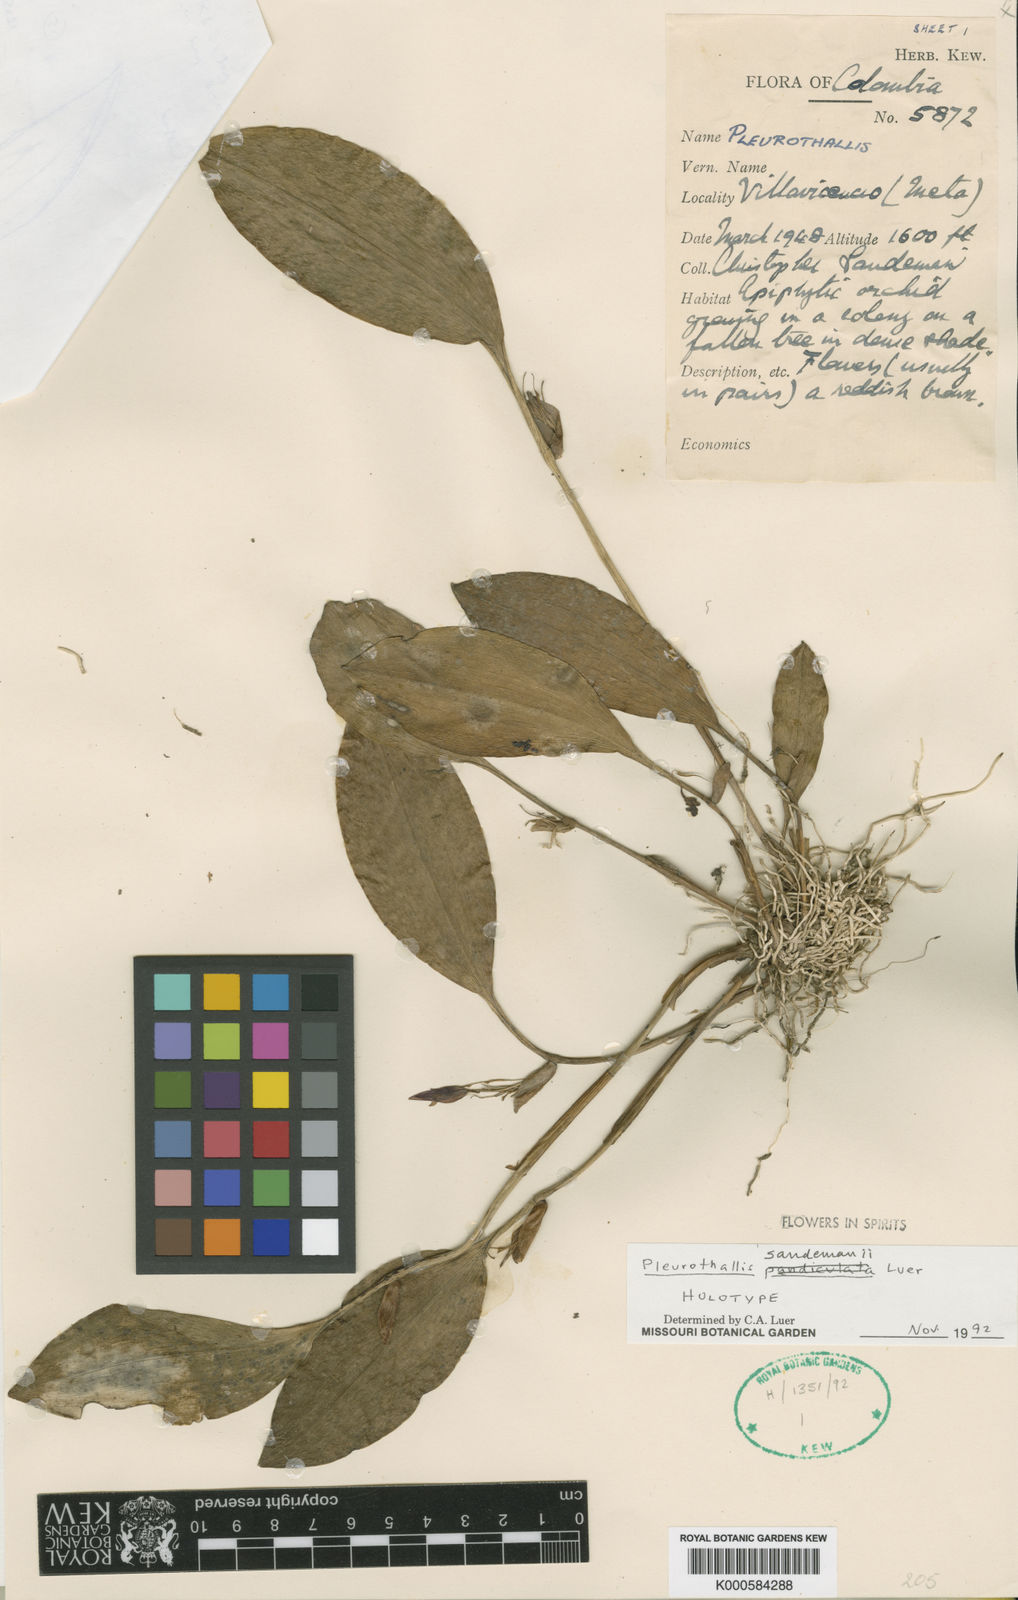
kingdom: Plantae
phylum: Tracheophyta
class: Liliopsida
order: Asparagales
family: Orchidaceae
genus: Pleurothallis
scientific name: Pleurothallis
